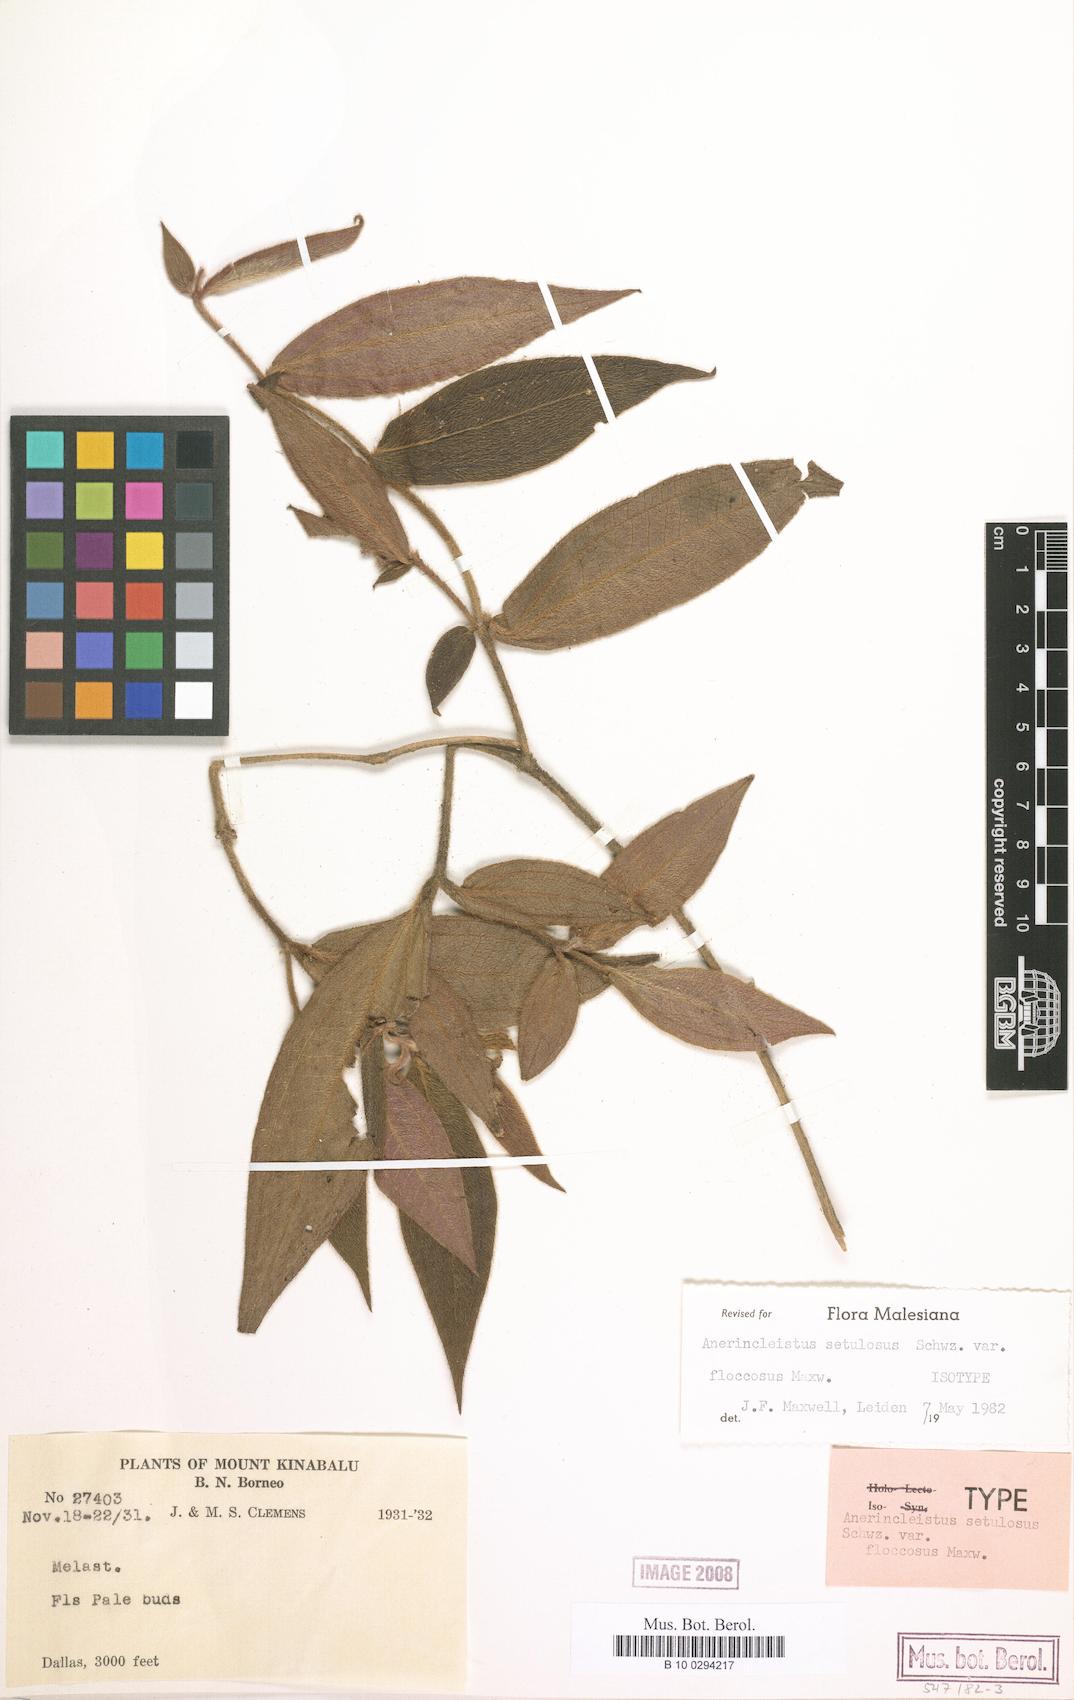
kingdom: Plantae
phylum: Tracheophyta
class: Magnoliopsida
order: Myrtales
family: Melastomataceae
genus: Anerincleistus
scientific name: Anerincleistus setulosus
